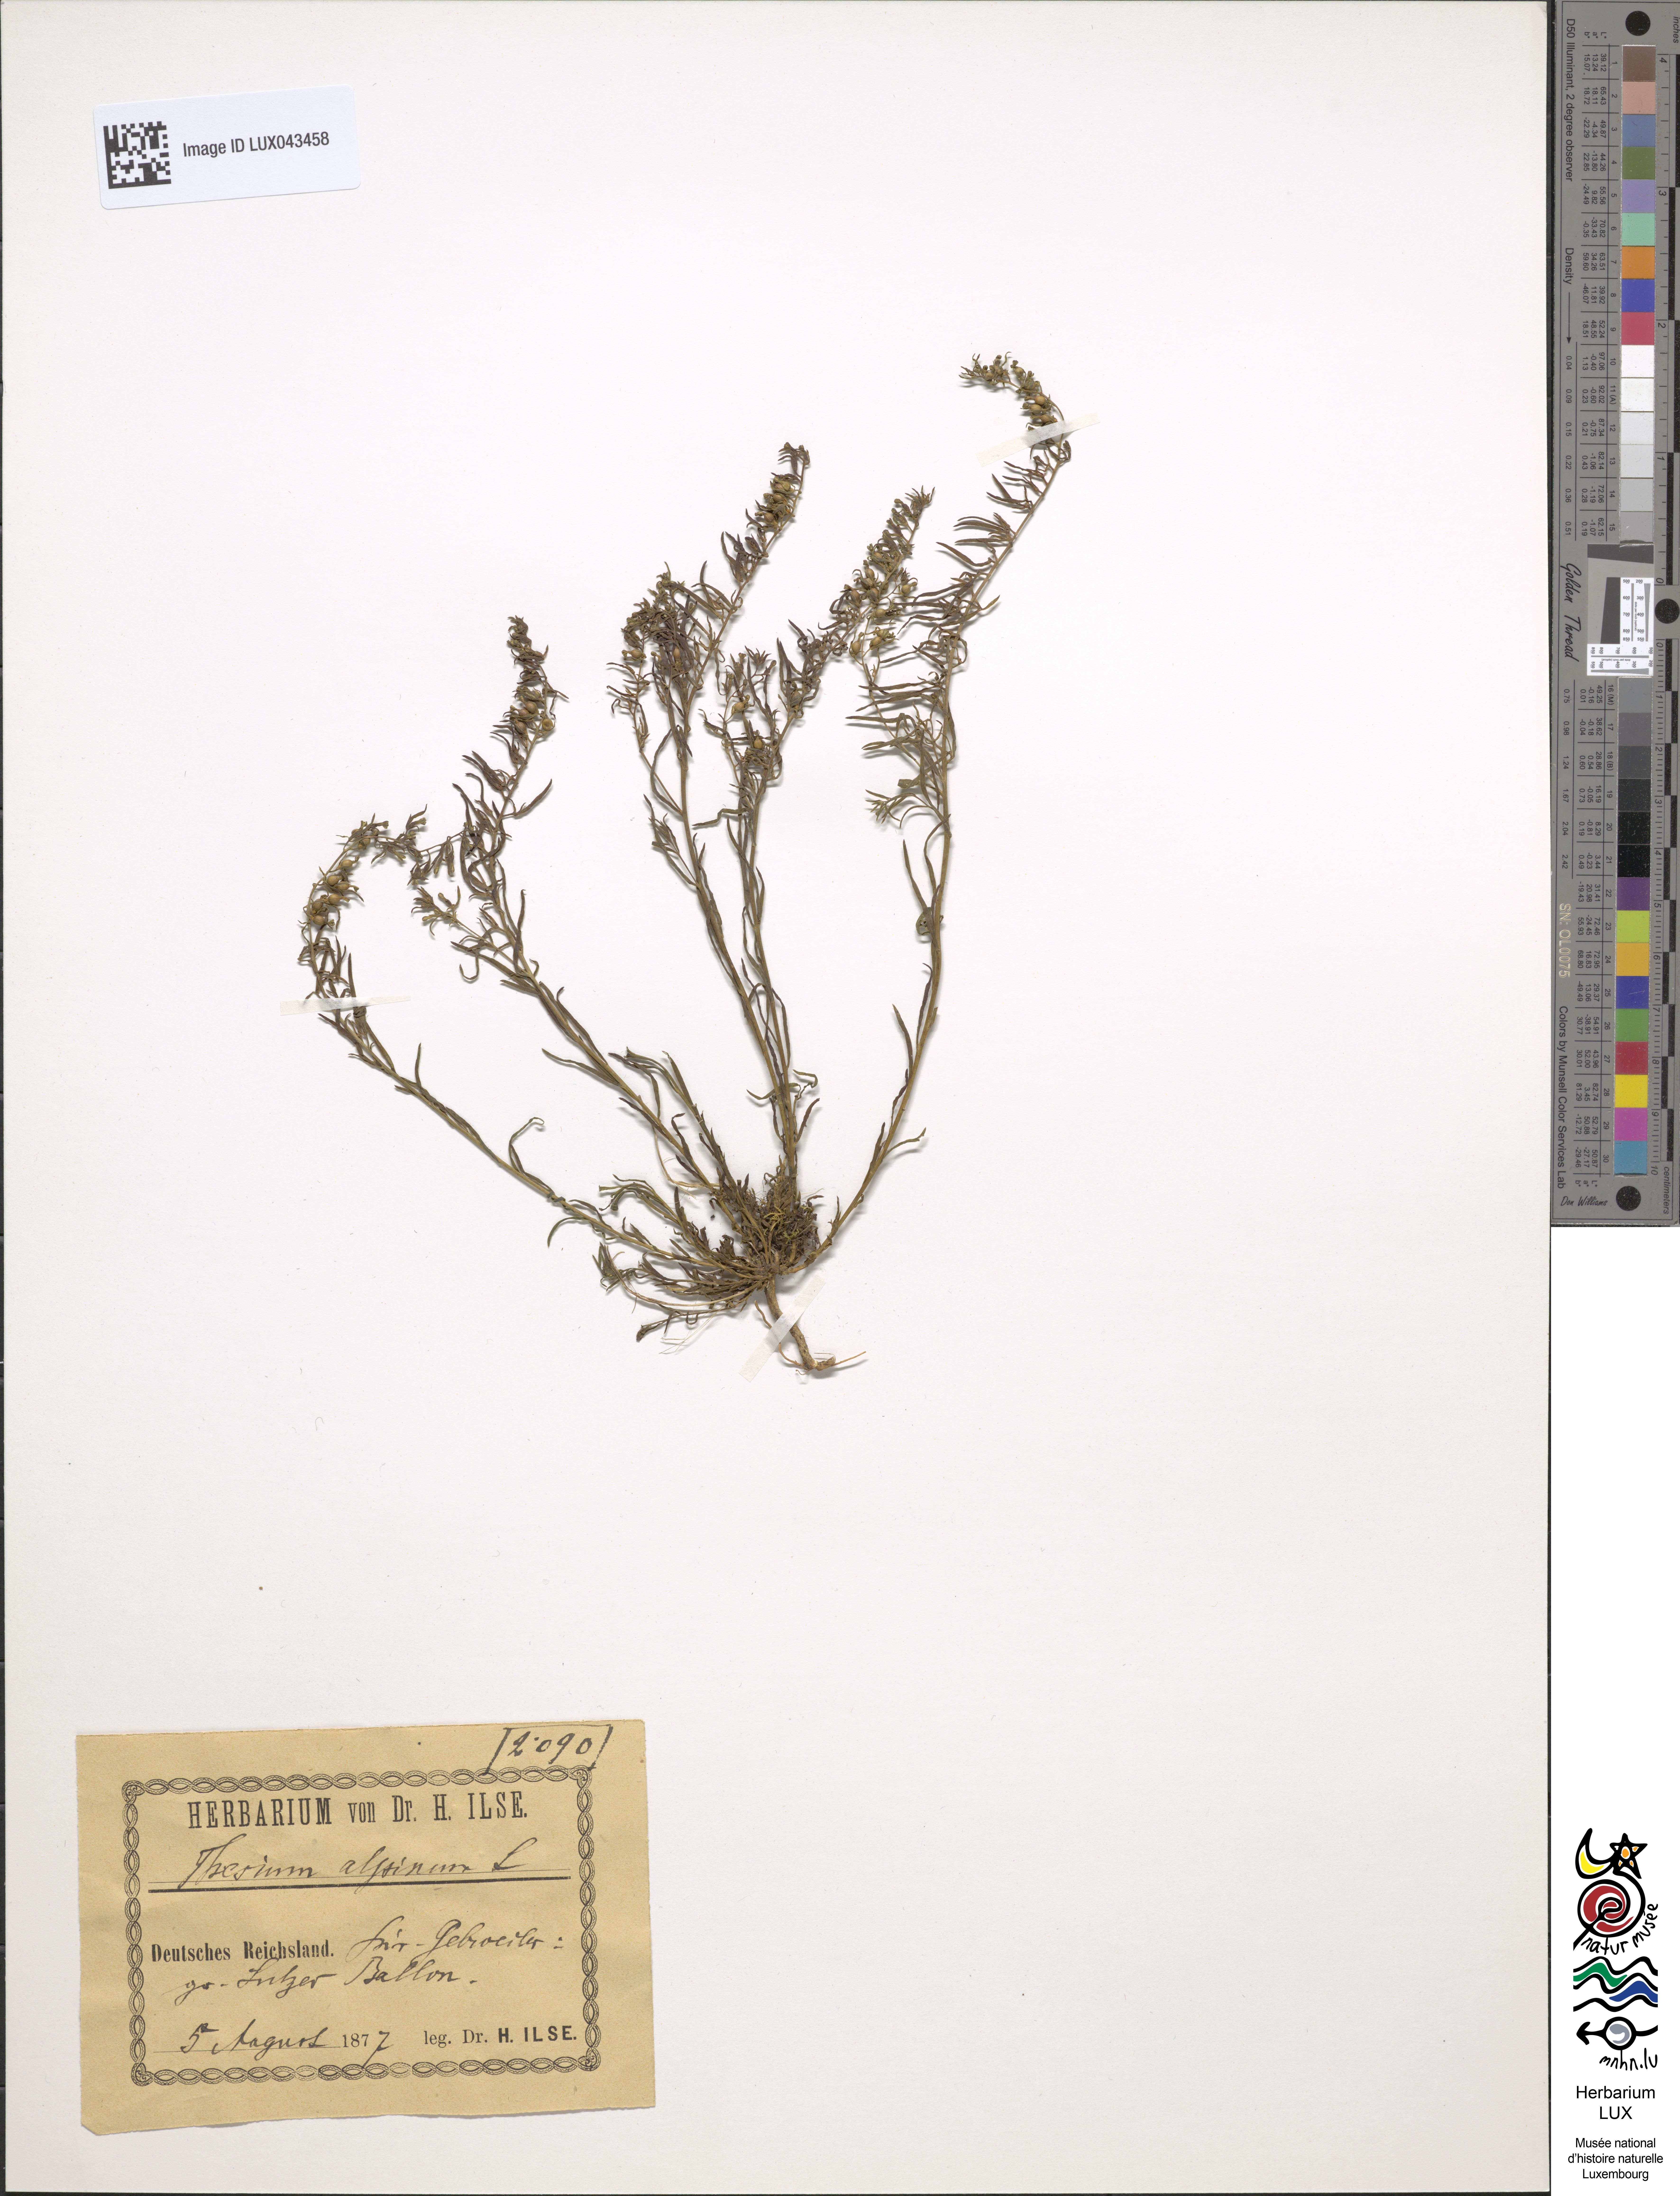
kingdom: Plantae
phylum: Tracheophyta
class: Magnoliopsida
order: Santalales
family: Thesiaceae
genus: Thesium
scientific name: Thesium alpinum
